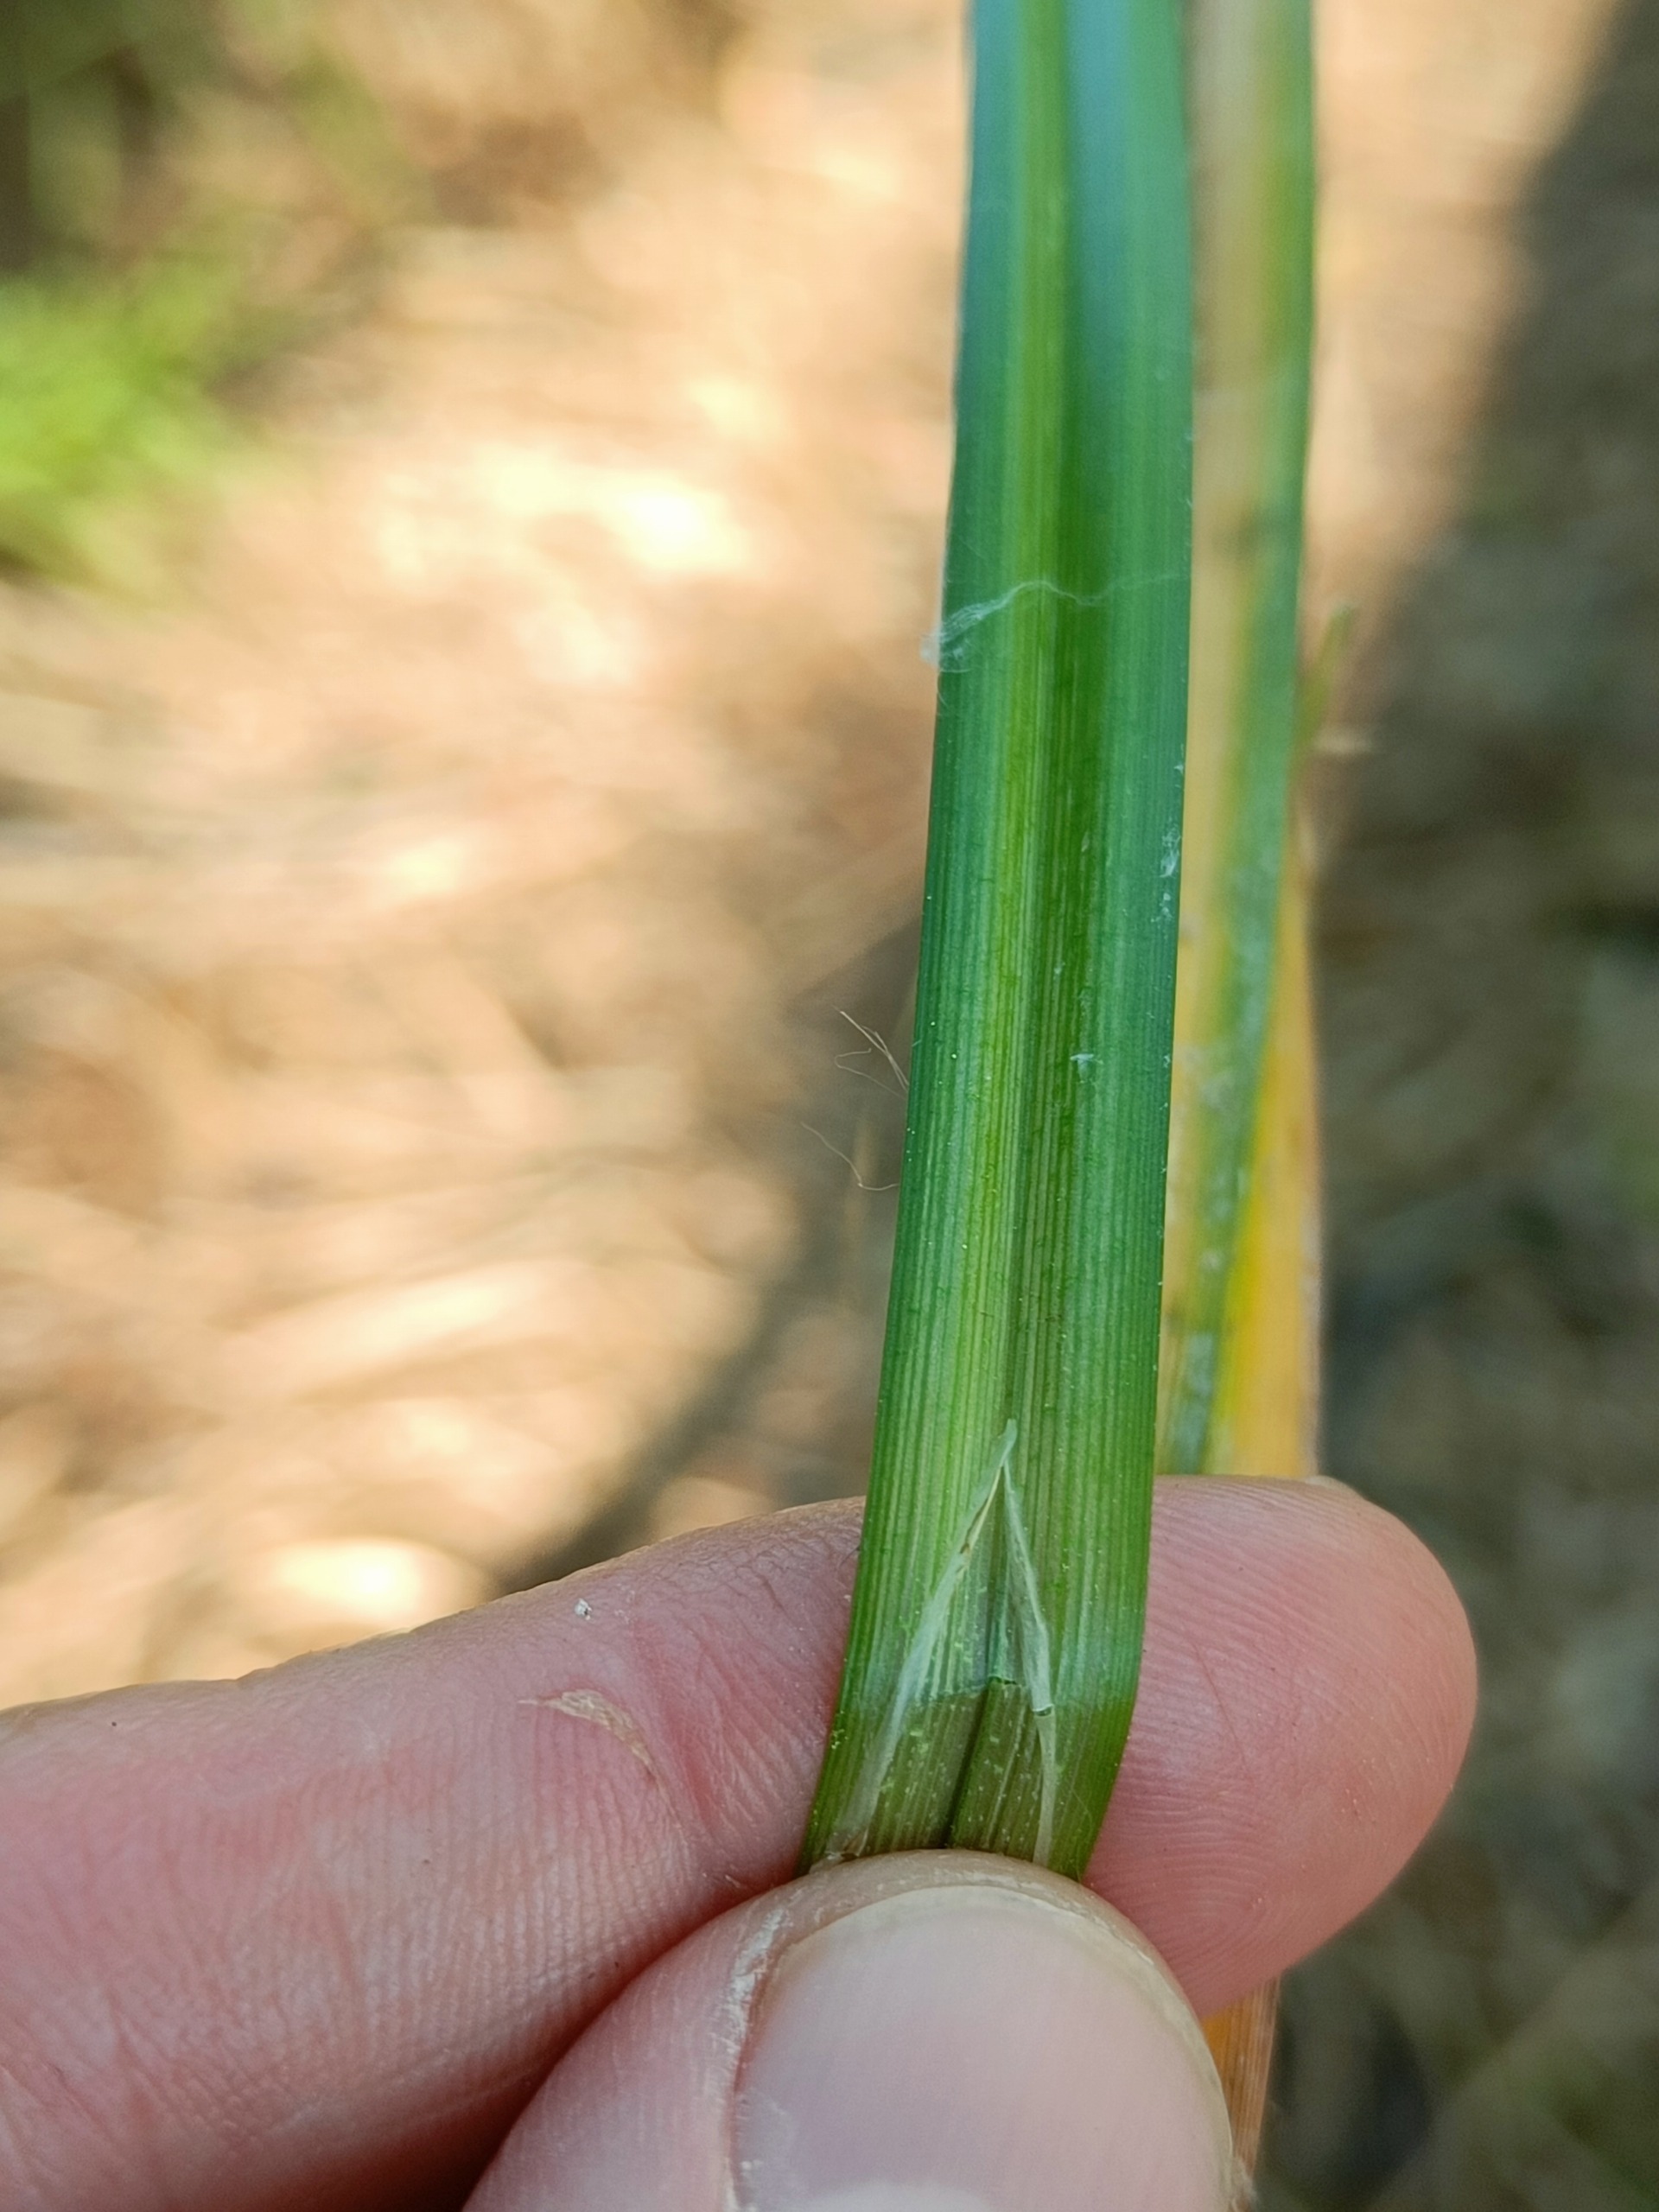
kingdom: Plantae
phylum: Tracheophyta
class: Liliopsida
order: Poales
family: Cyperaceae
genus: Carex
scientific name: Carex pseudocyperus
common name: Knippe-star
